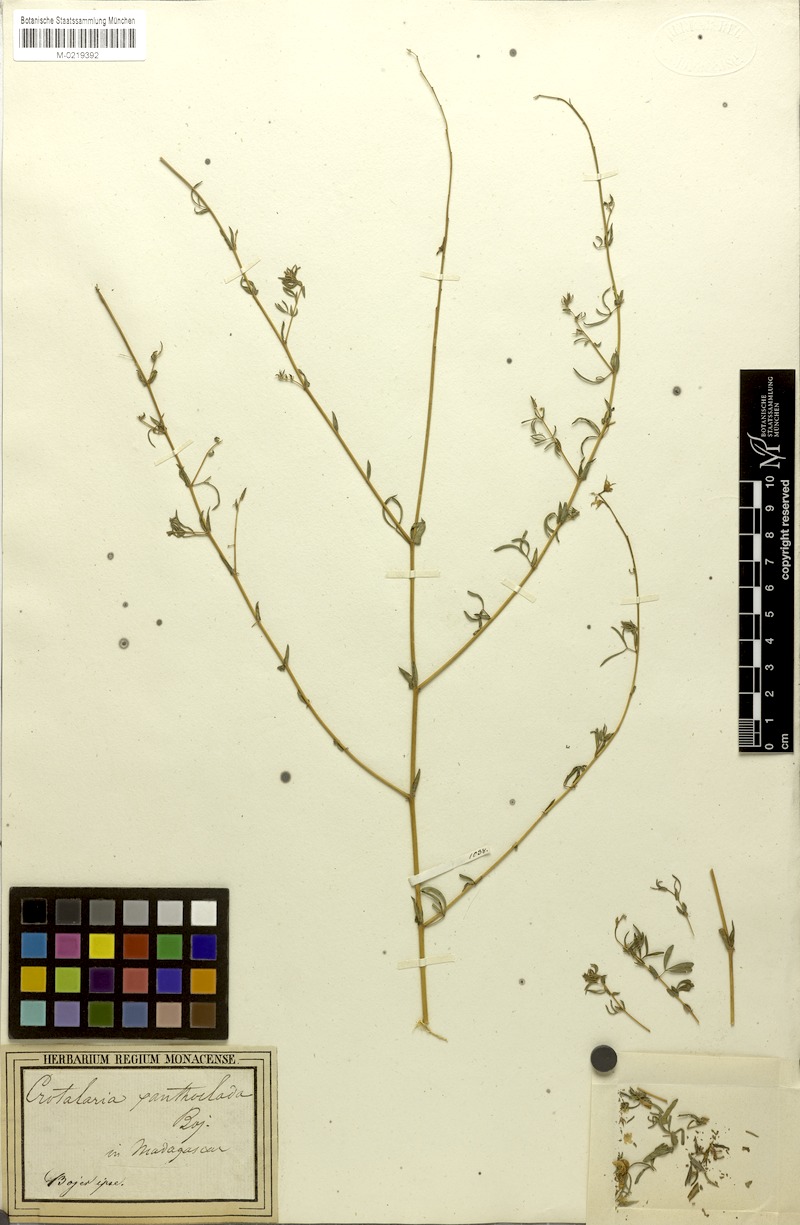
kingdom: Plantae
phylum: Tracheophyta
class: Magnoliopsida
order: Fabales
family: Fabaceae
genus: Crotalaria
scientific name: Crotalaria xanthoclada
